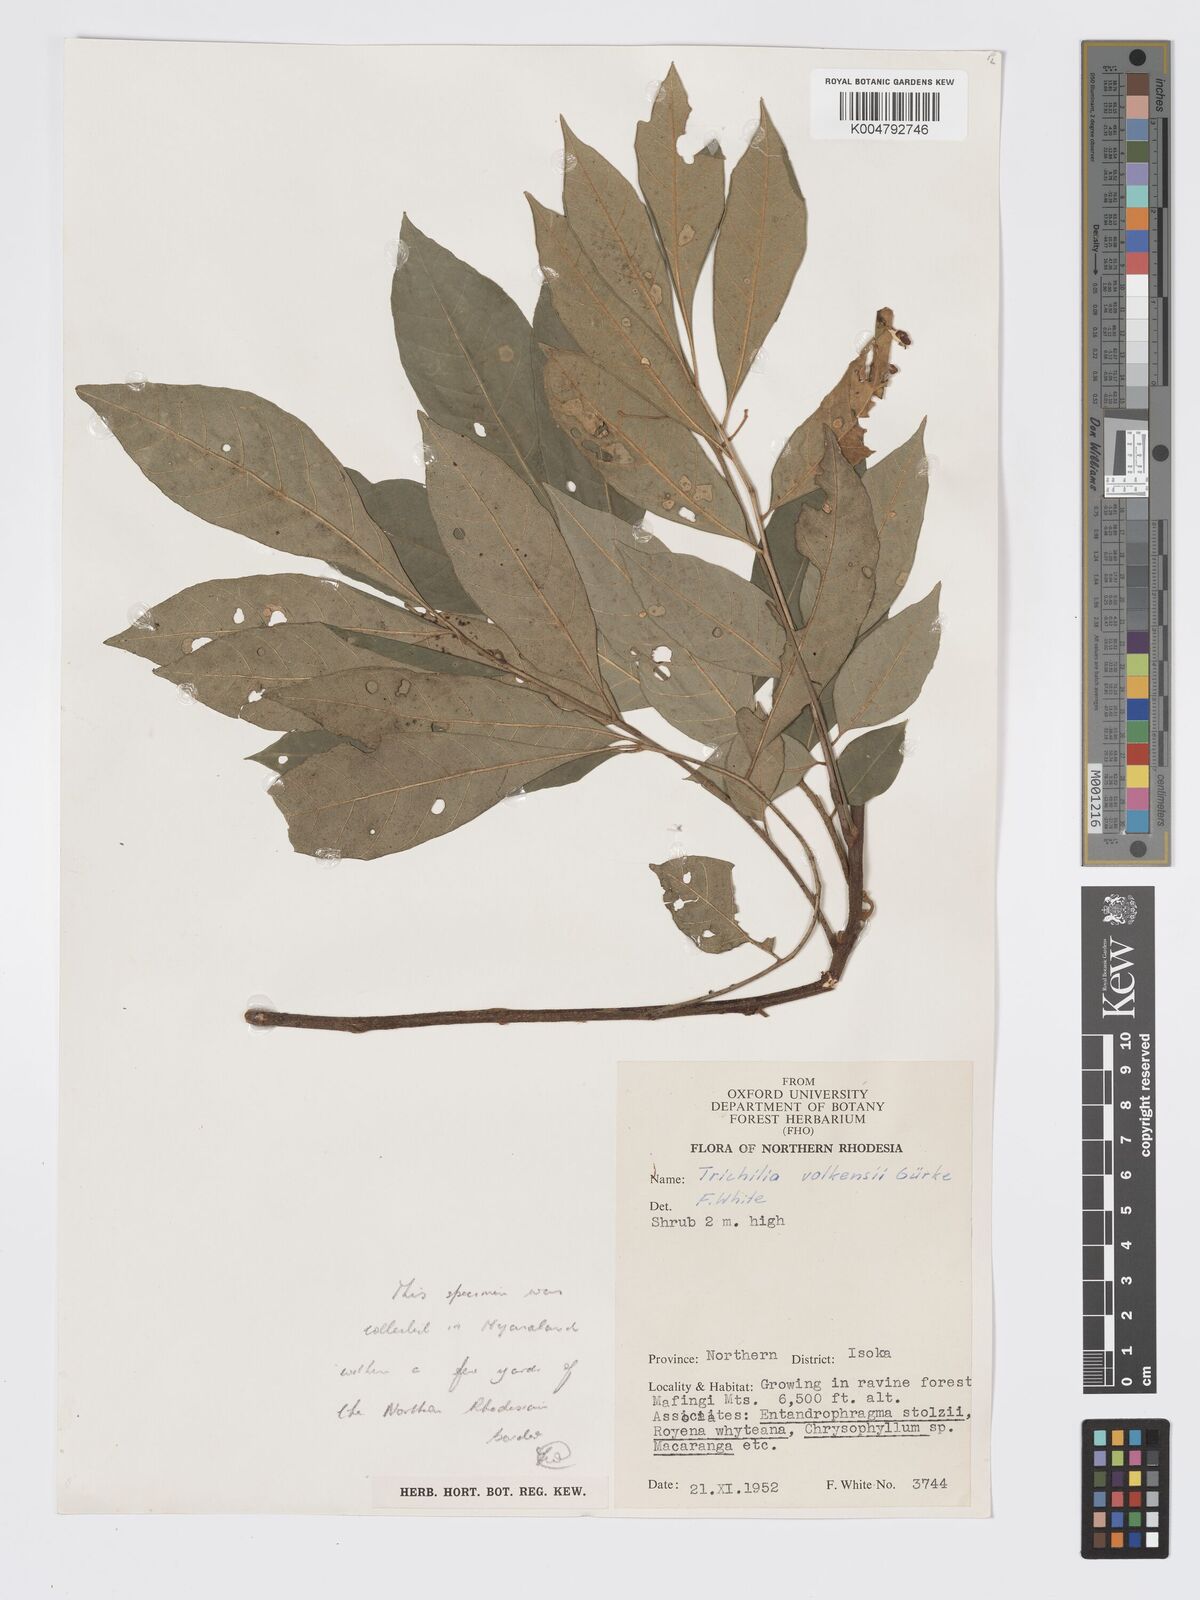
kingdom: Plantae
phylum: Tracheophyta
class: Magnoliopsida
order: Sapindales
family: Meliaceae
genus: Lepidotrichilia
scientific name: Lepidotrichilia volkensii
